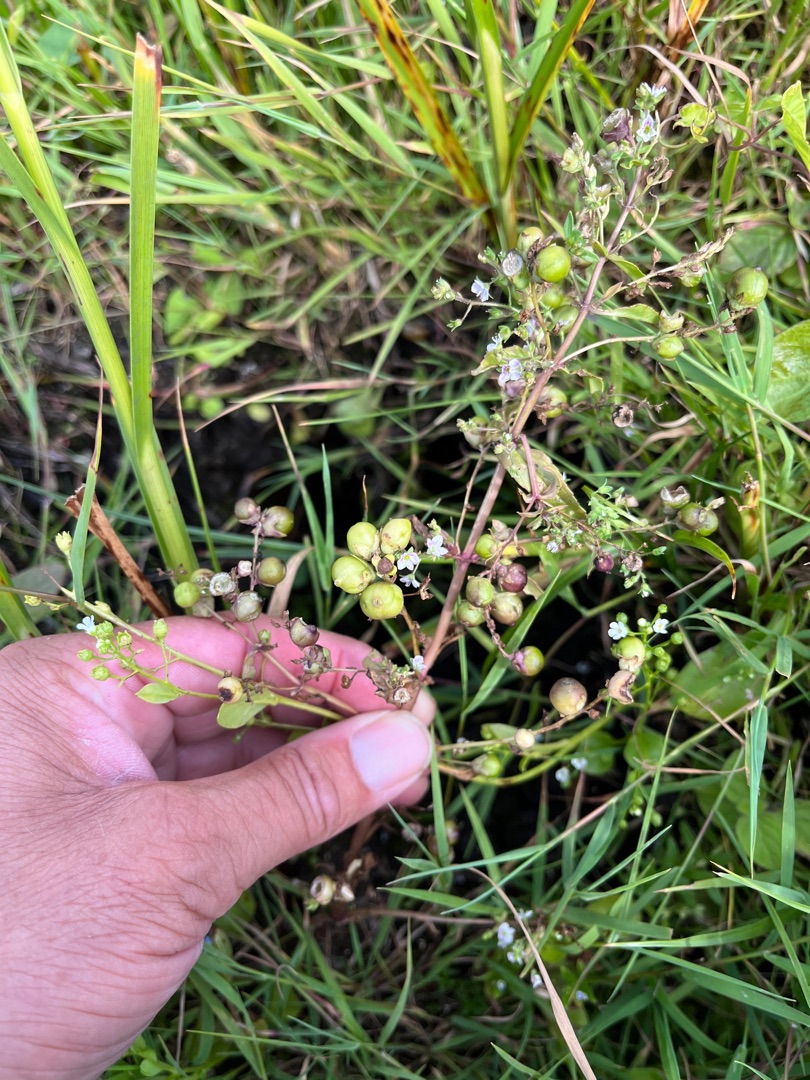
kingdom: Plantae
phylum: Tracheophyta
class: Magnoliopsida
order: Lamiales
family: Plantaginaceae
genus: Veronica
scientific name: Veronica anagallis-aquatica
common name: Lancetbladet ærenpris
